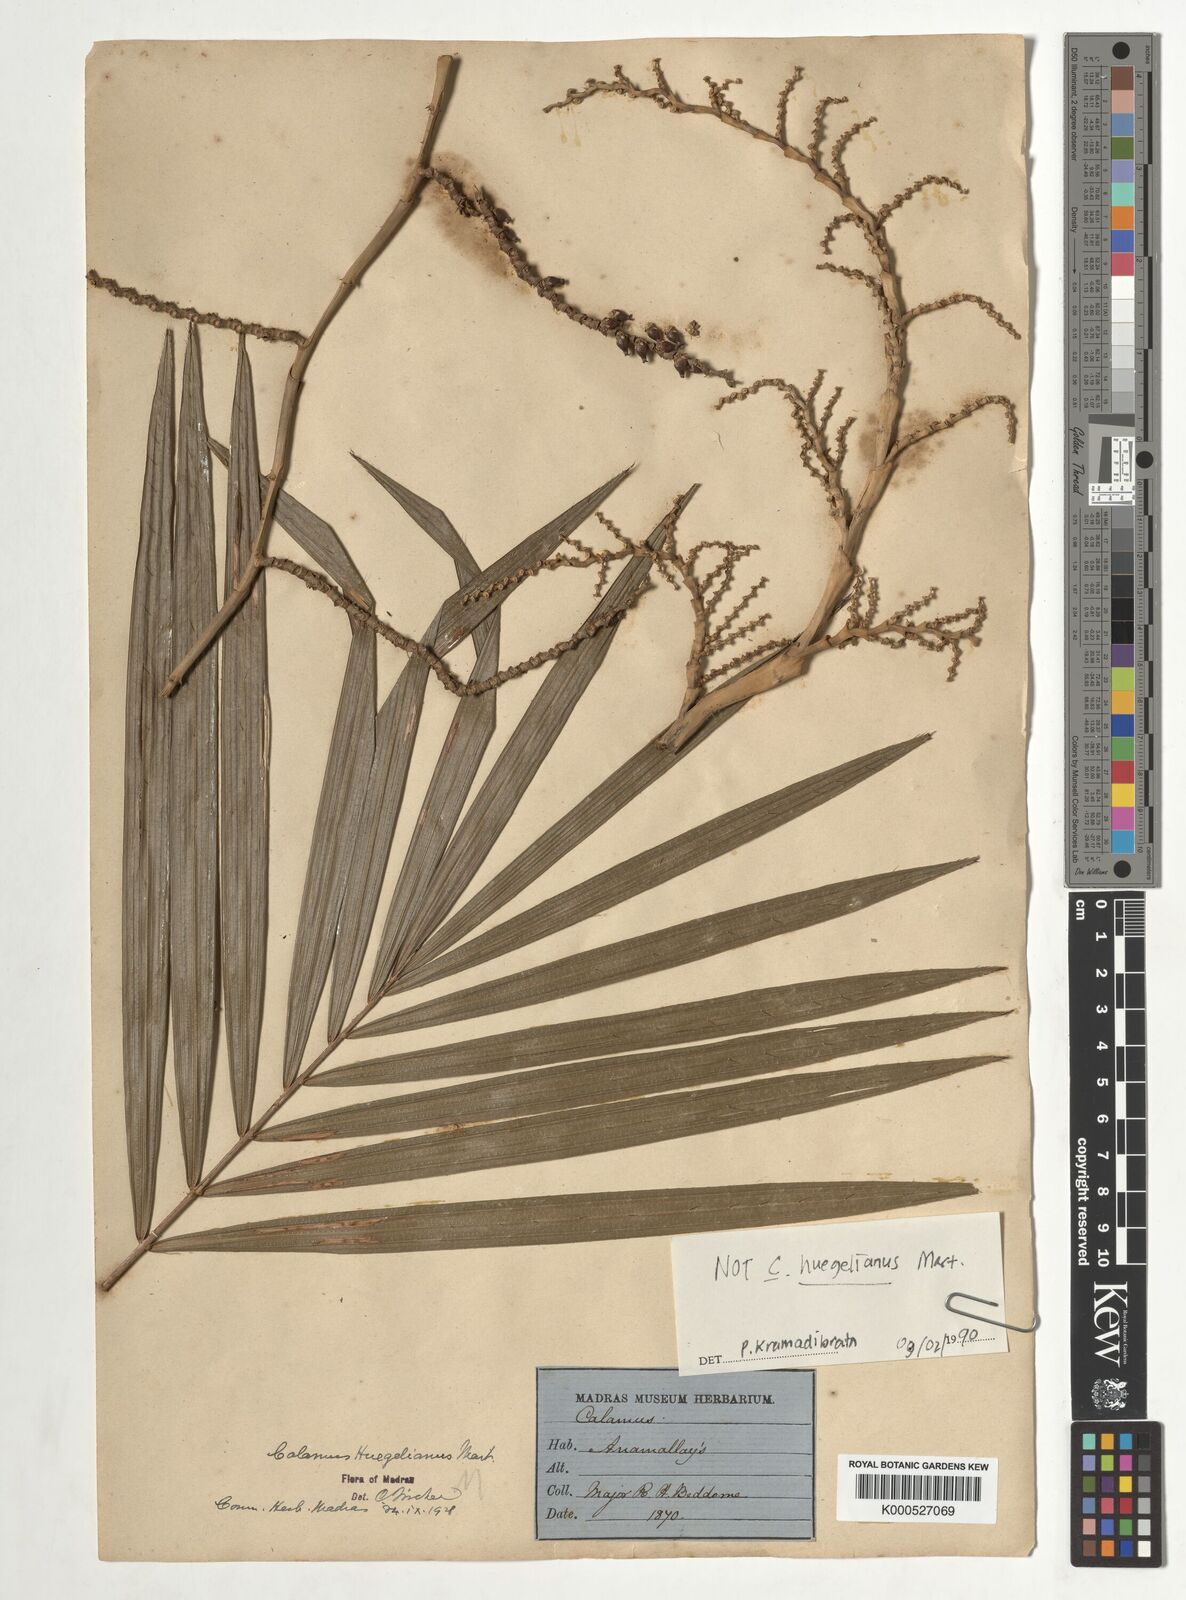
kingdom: Plantae
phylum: Tracheophyta
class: Liliopsida
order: Arecales
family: Arecaceae
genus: Calamus
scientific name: Calamus wightii
